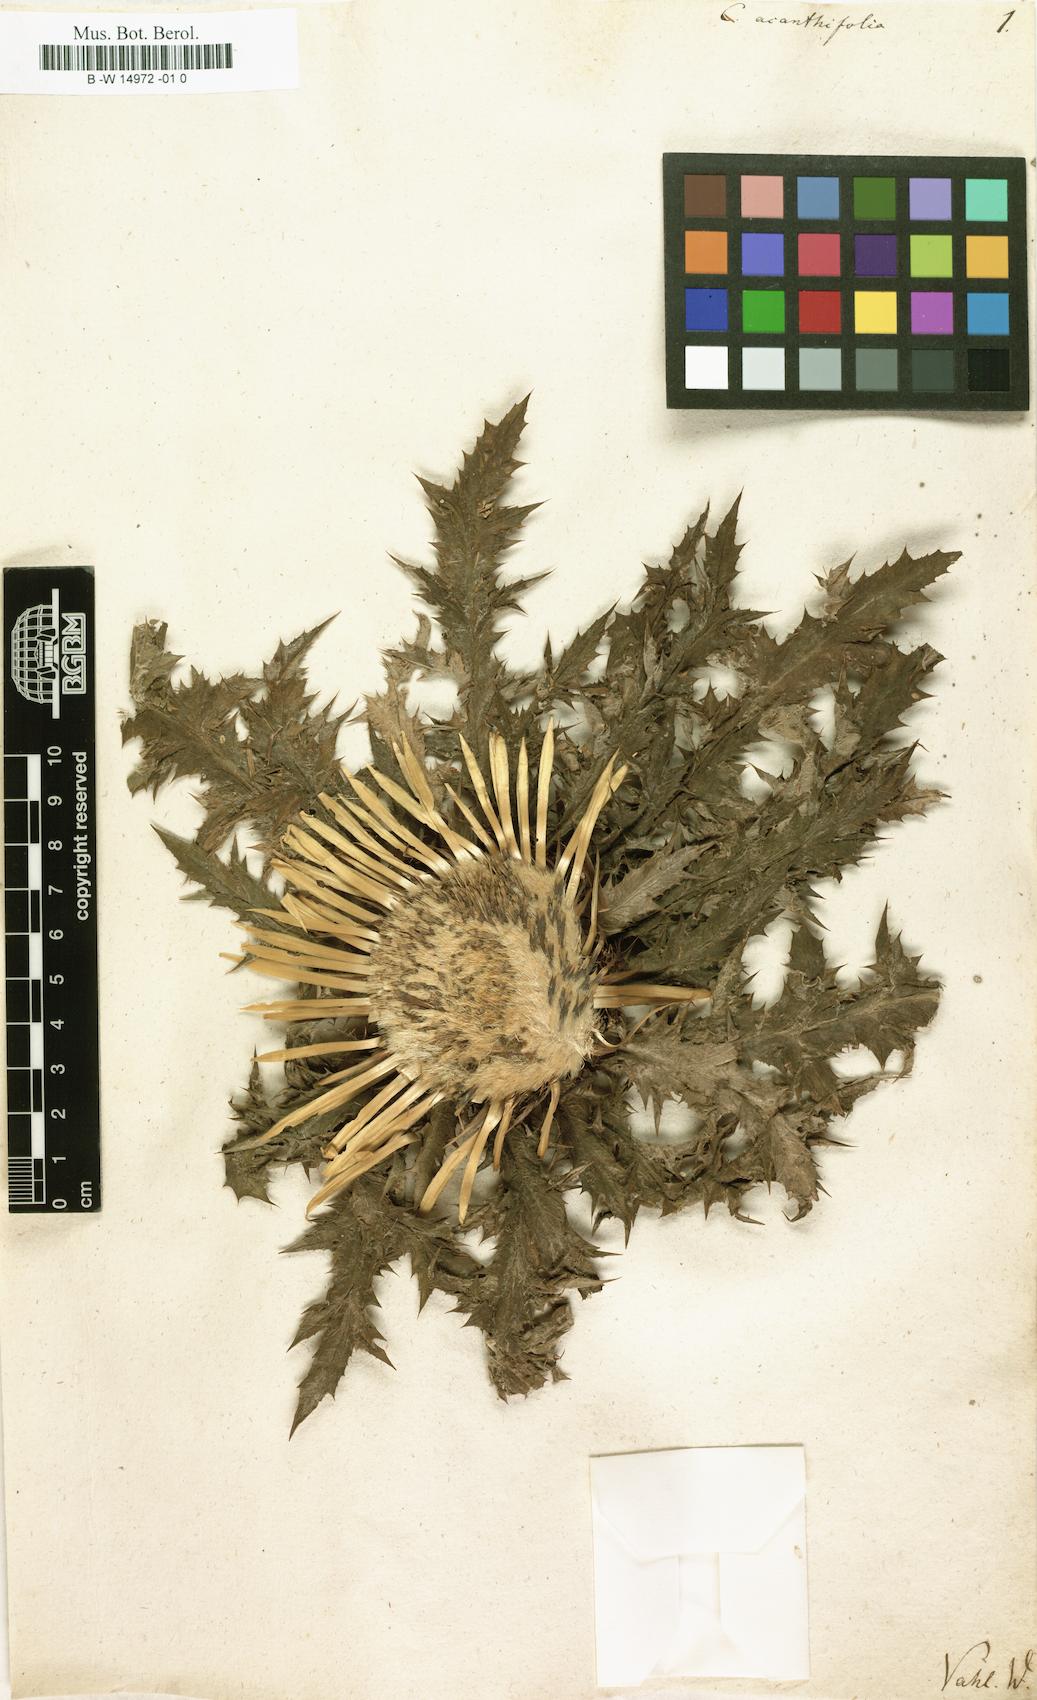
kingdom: Plantae
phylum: Tracheophyta
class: Magnoliopsida
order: Asterales
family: Asteraceae
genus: Carlina
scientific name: Carlina acanthifolia
